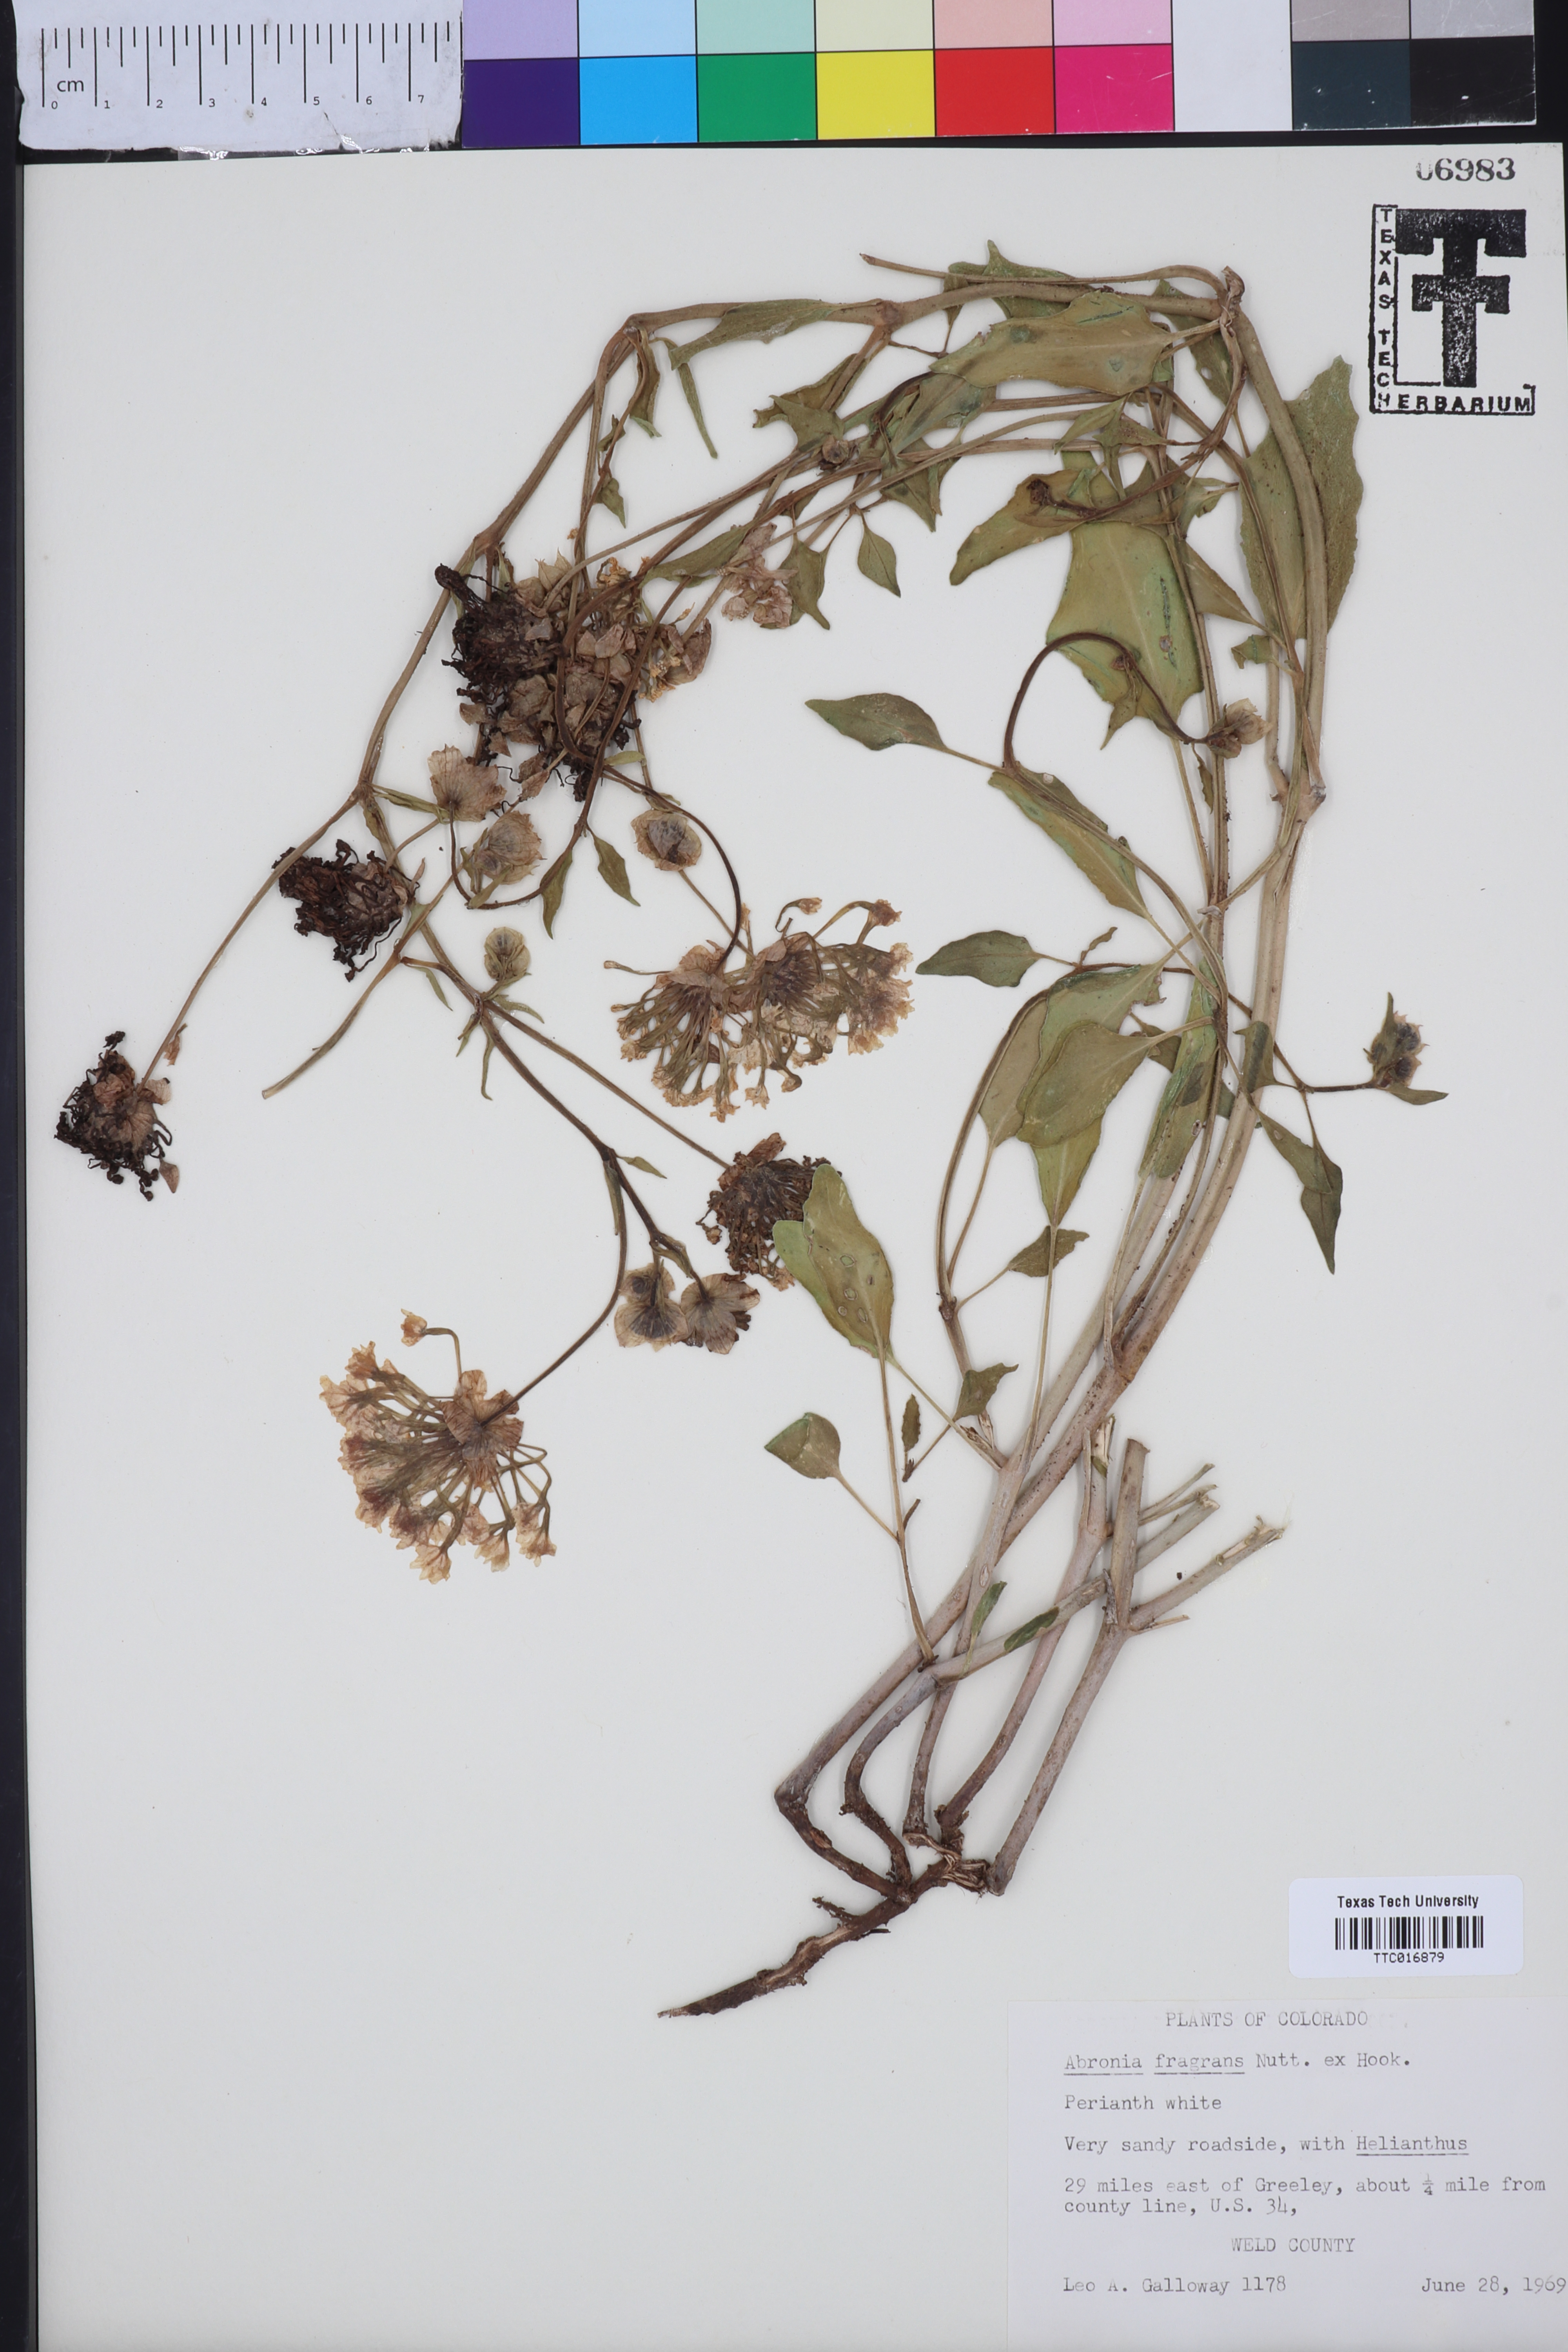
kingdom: Plantae
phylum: Tracheophyta
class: Magnoliopsida
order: Caryophyllales
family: Nyctaginaceae
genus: Abronia
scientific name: Abronia fragrans
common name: Fragrant sand-verbena
